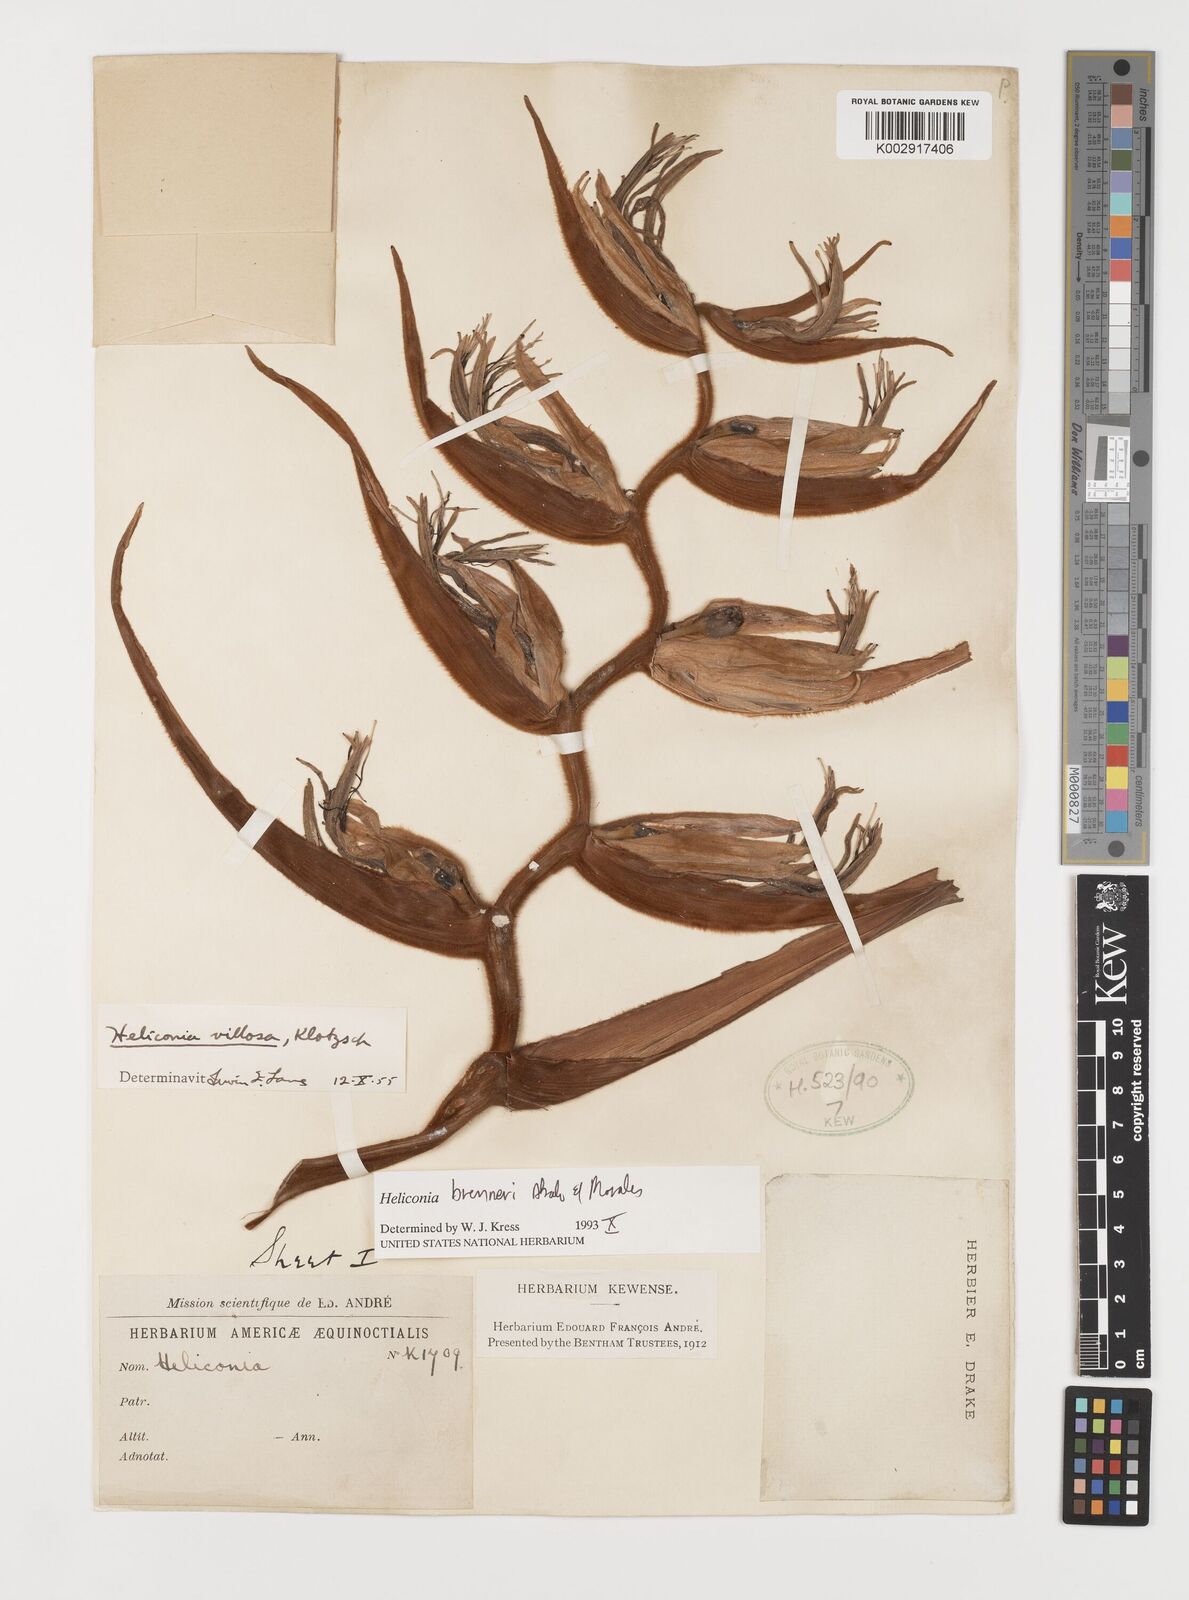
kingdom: Plantae
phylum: Tracheophyta
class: Liliopsida
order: Zingiberales
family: Heliconiaceae
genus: Heliconia
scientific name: Heliconia brenneri
